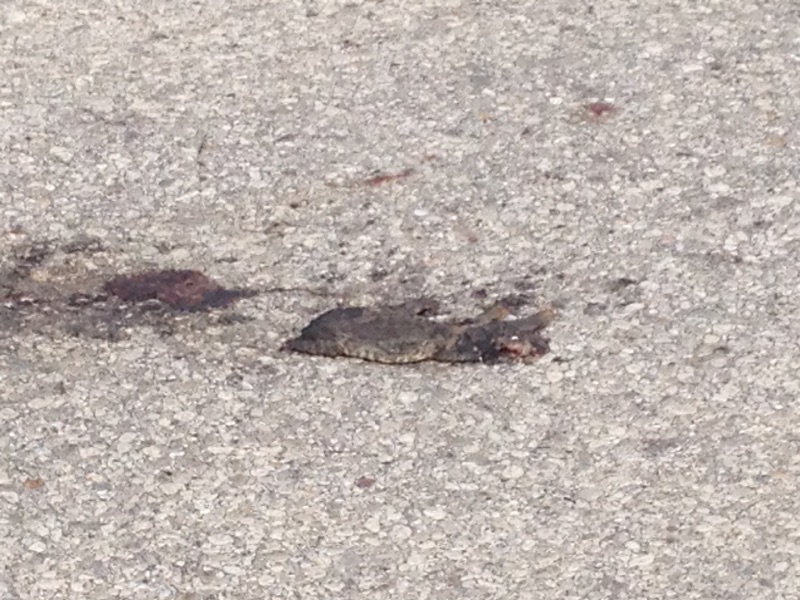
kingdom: Animalia
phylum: Chordata
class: Amphibia
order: Anura
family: Bufonidae
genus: Bufo
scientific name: Bufo bufo
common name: Common toad
